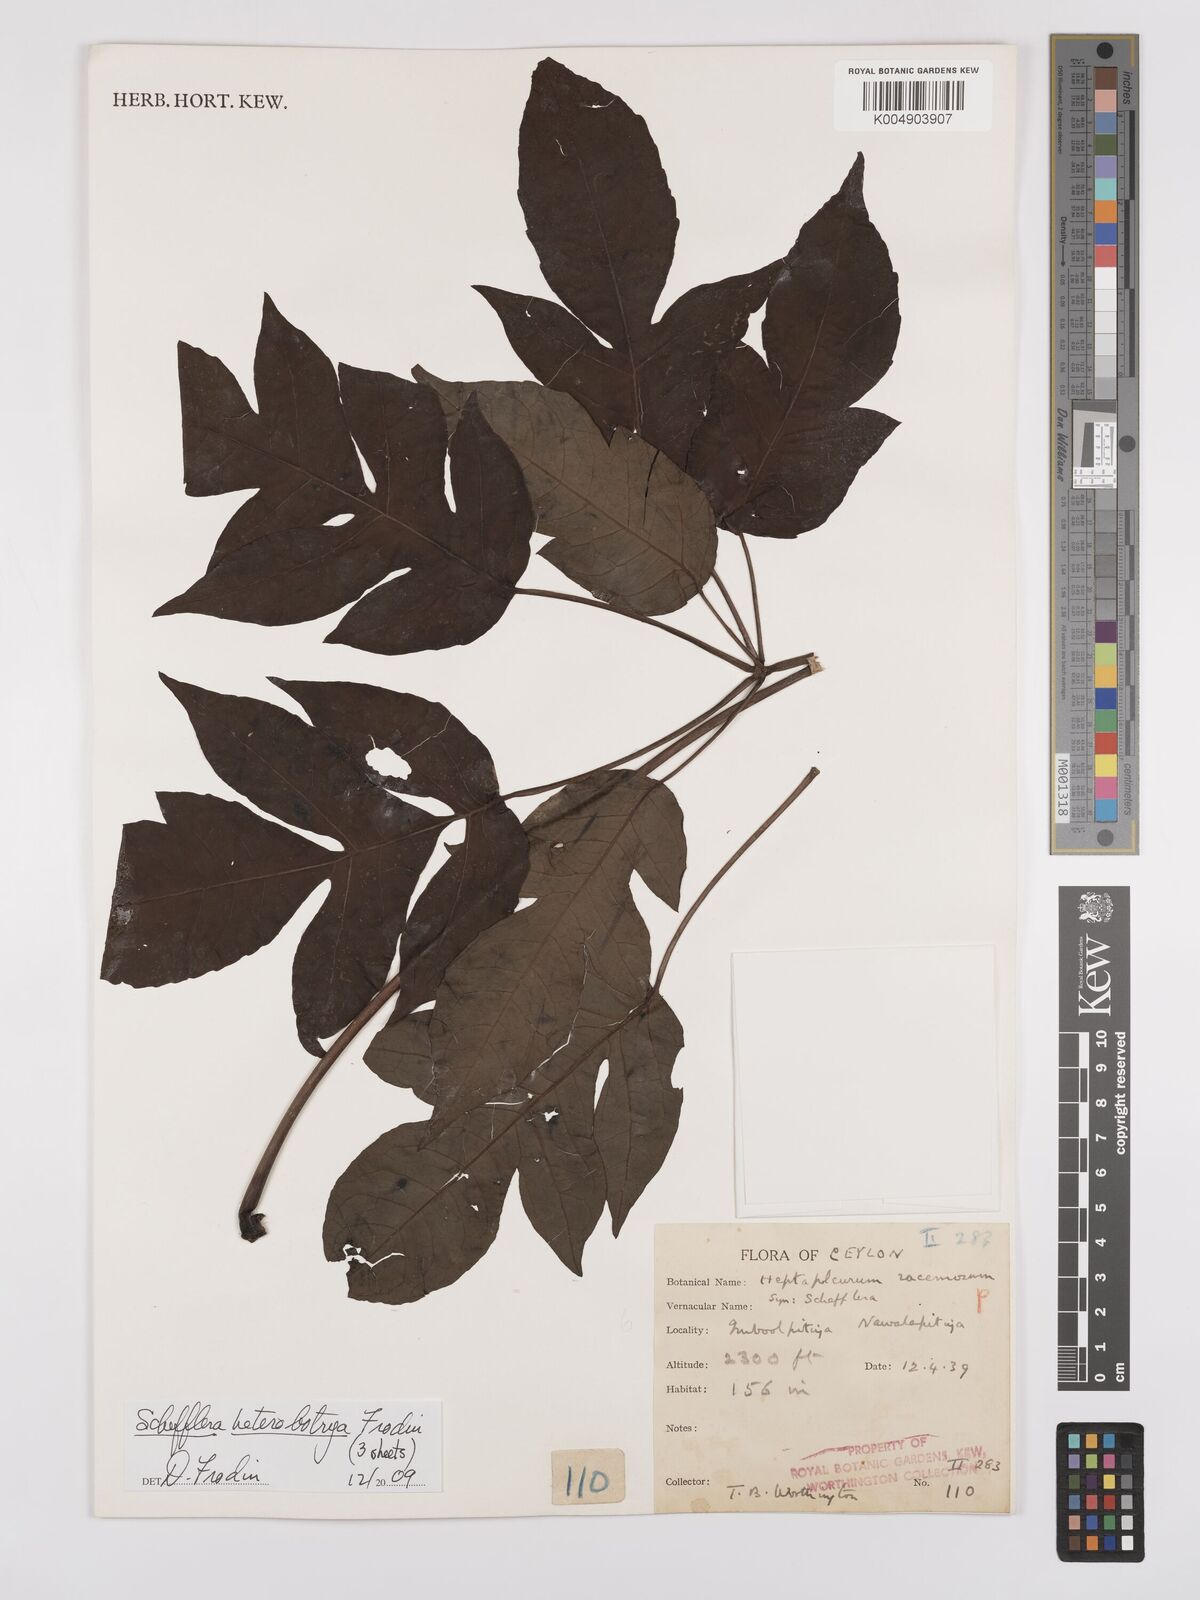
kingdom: Plantae
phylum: Tracheophyta
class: Magnoliopsida
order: Apiales
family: Araliaceae
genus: Heptapleurum
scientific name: Heptapleurum
